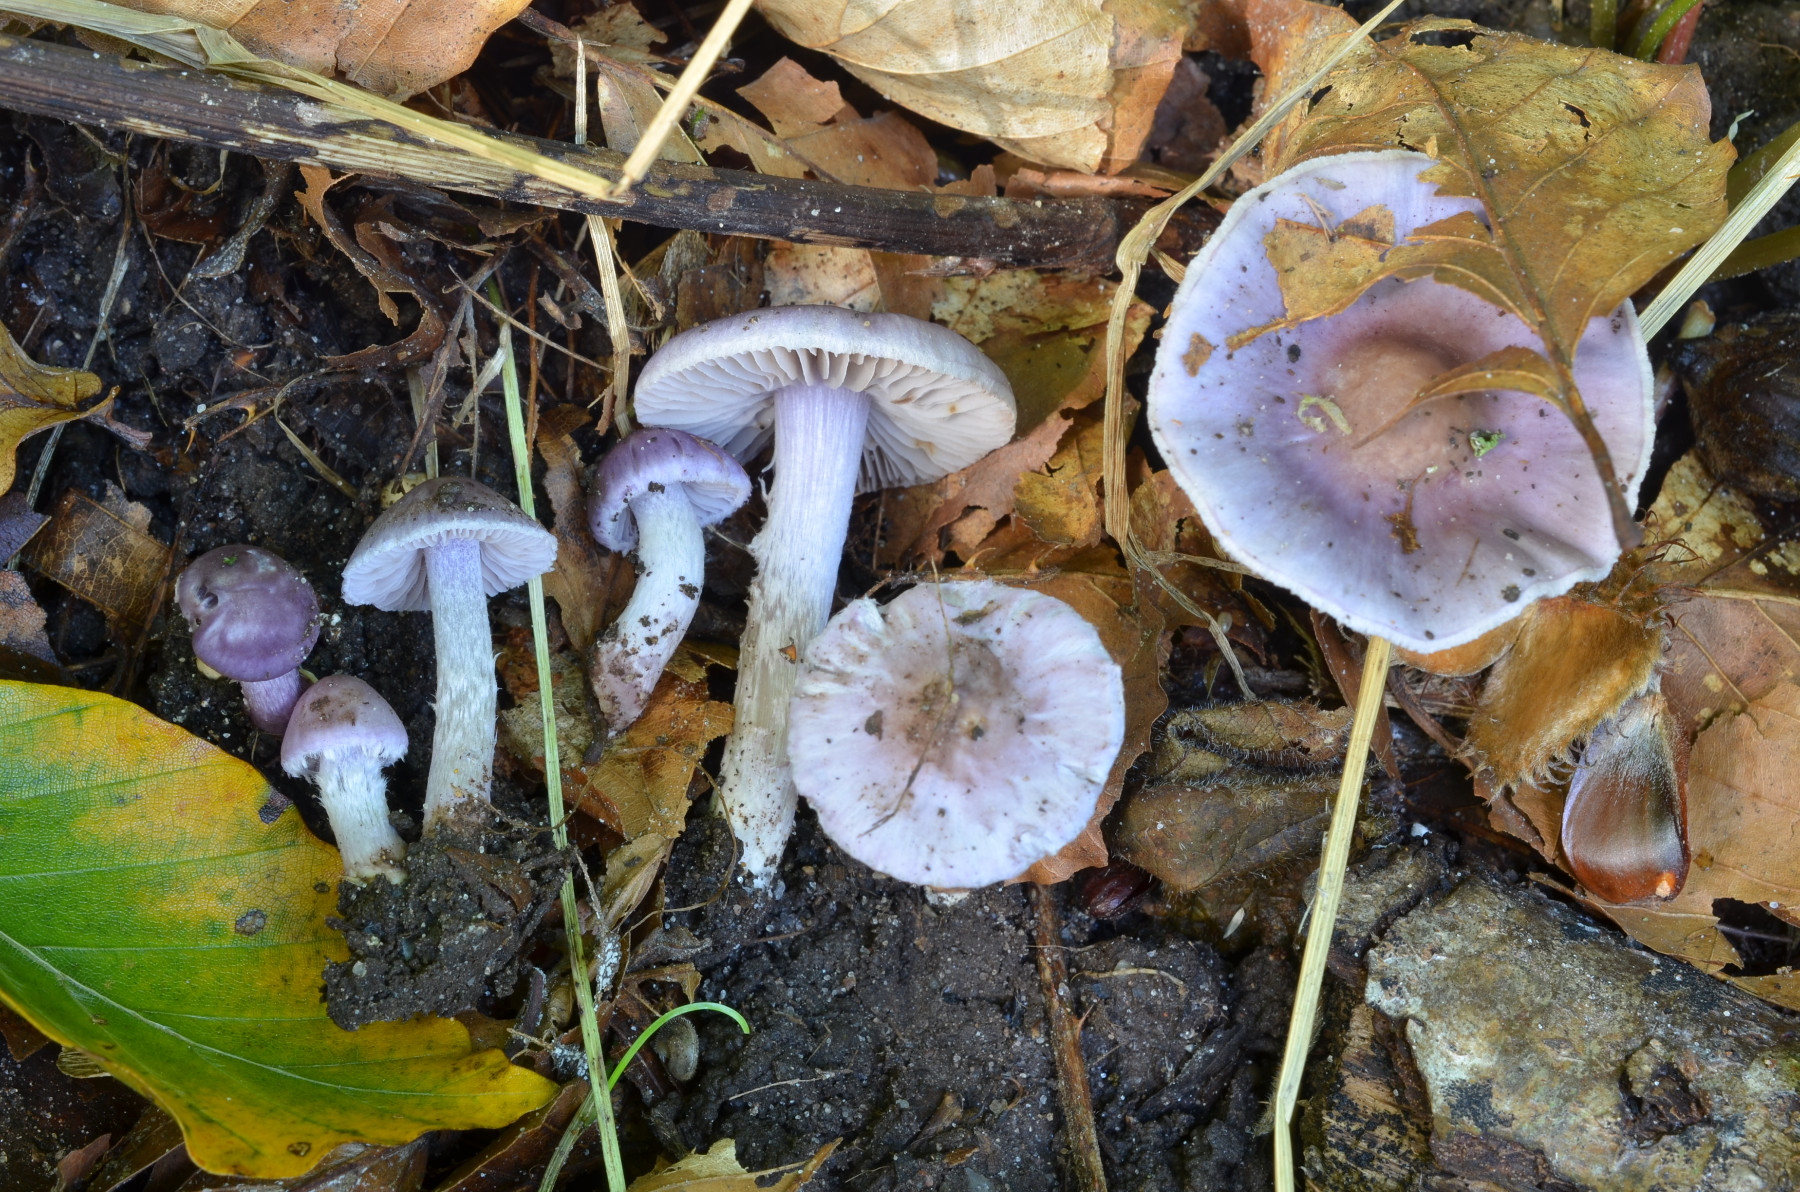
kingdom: Fungi
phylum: Basidiomycota
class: Agaricomycetes
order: Agaricales
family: Inocybaceae
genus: Inocybe
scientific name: Inocybe ionolepis
